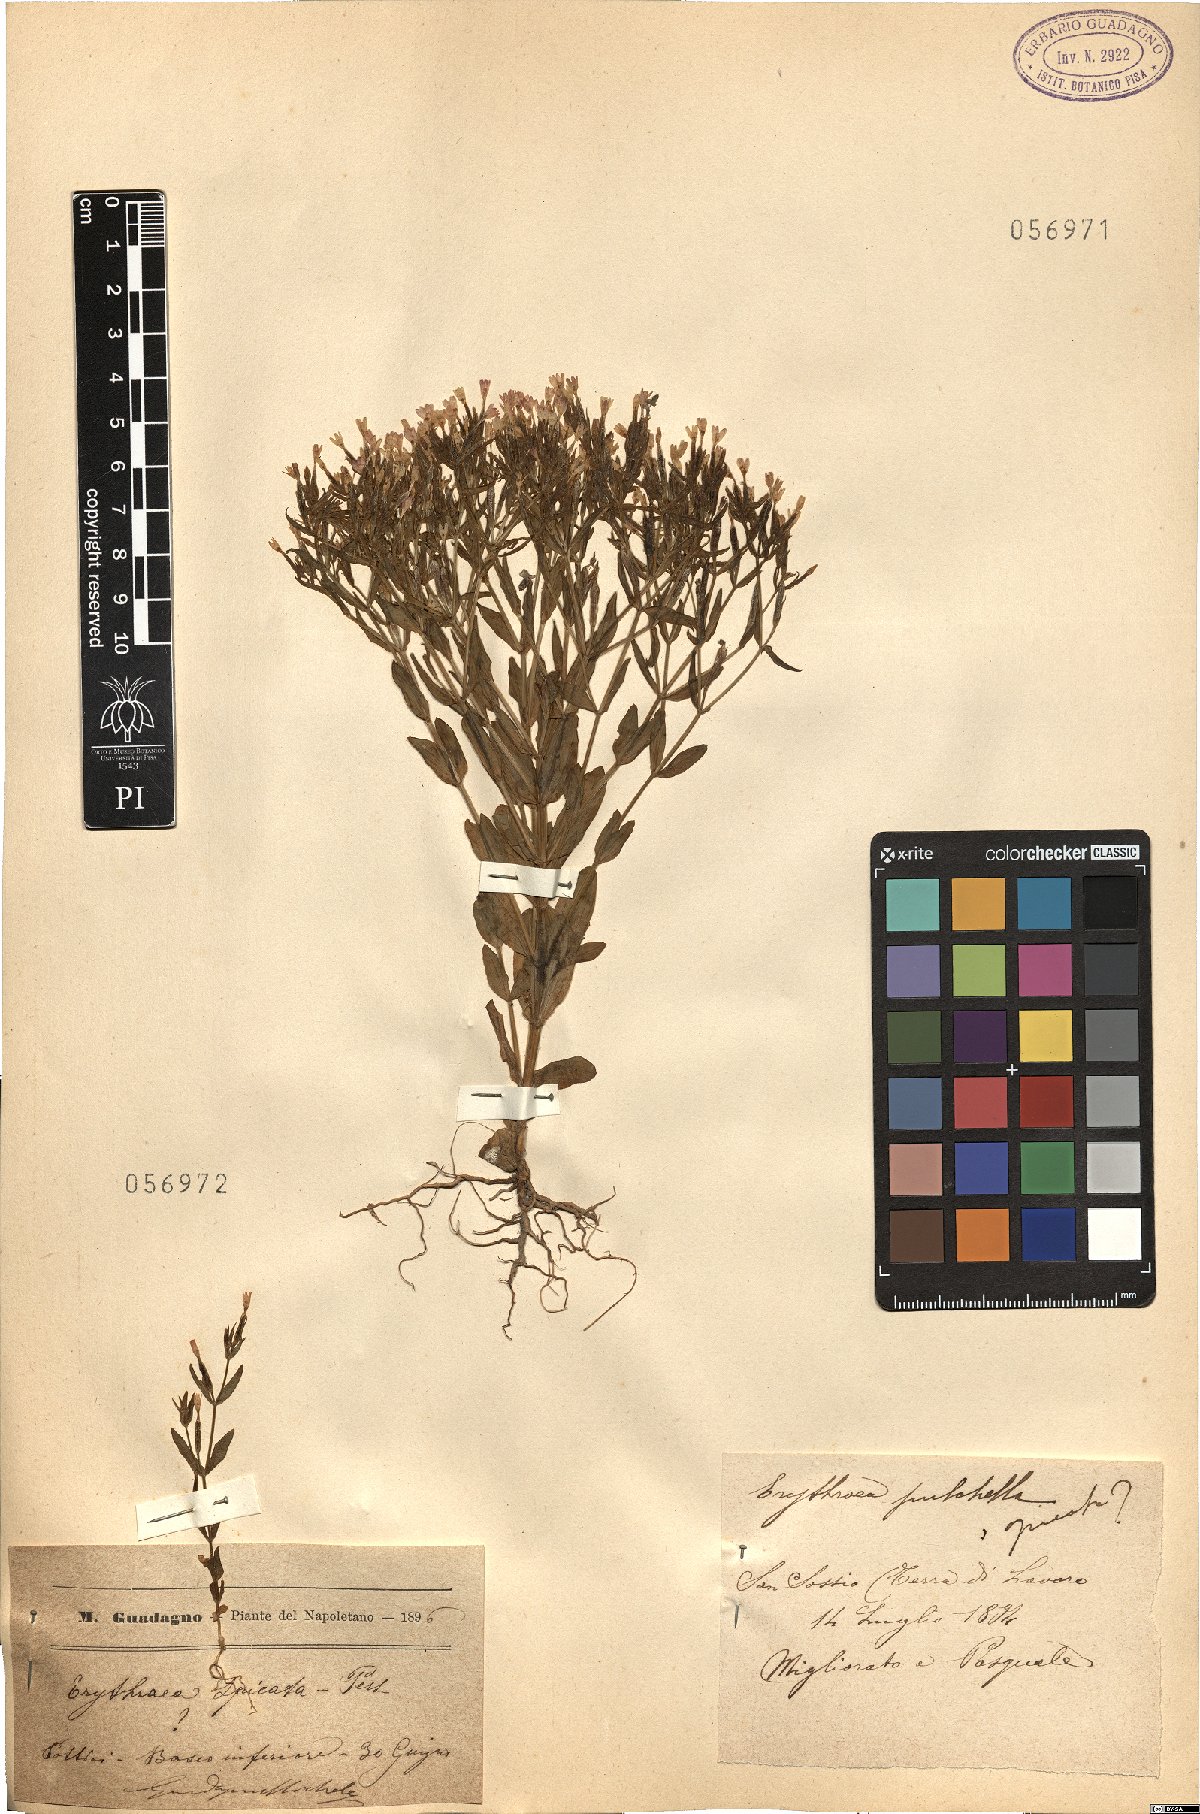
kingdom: Plantae
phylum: Tracheophyta
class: Magnoliopsida
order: Gentianales
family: Gentianaceae
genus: Centaurium
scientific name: Centaurium pulchellum
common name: Lesser centaury
